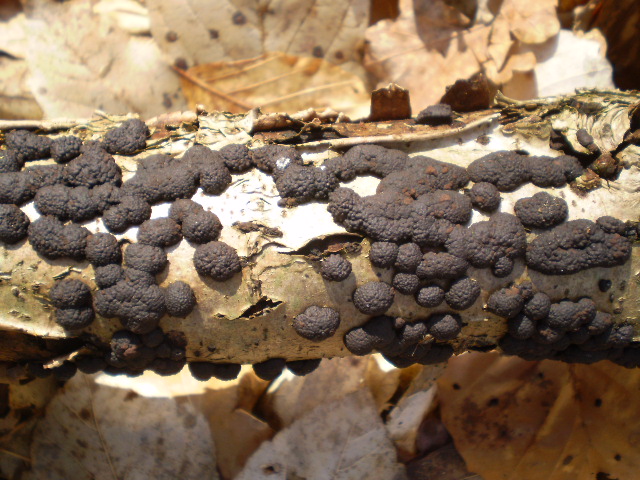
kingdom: Fungi
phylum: Ascomycota
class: Sordariomycetes
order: Xylariales
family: Hypoxylaceae
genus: Jackrogersella
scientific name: Jackrogersella multiformis
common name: foranderlig kulbær
